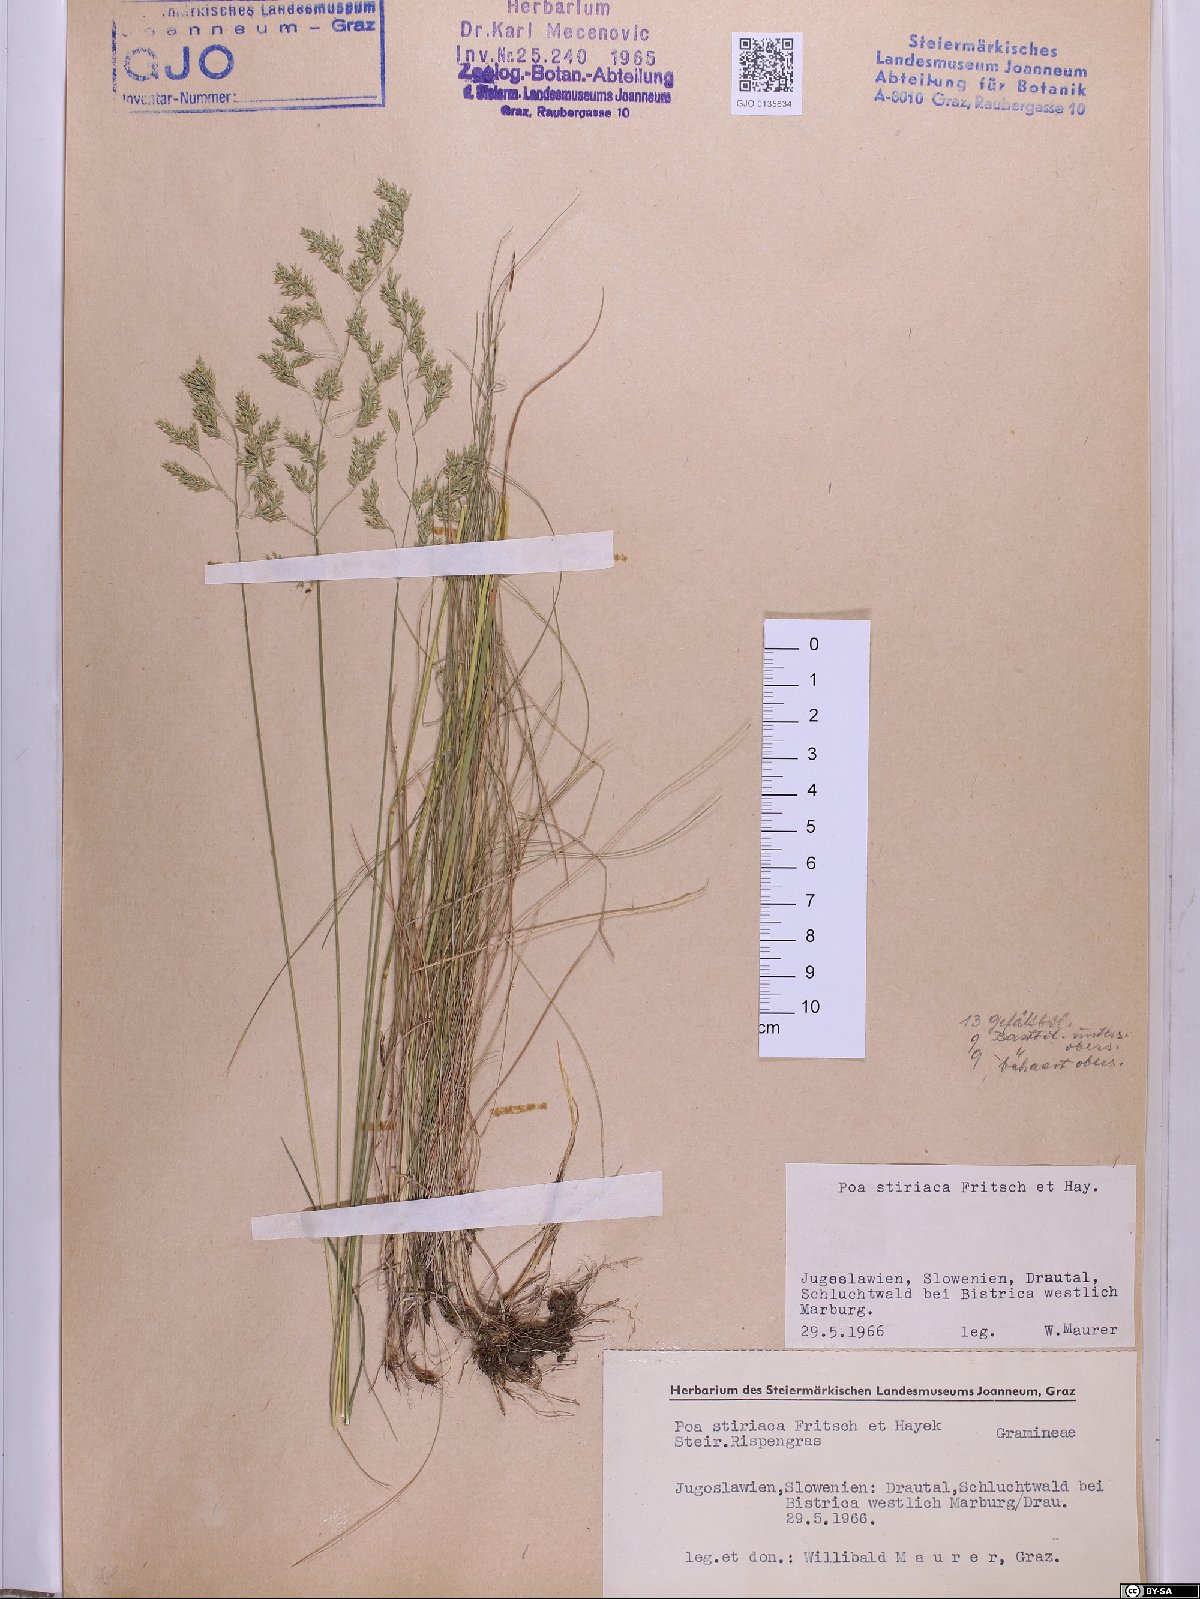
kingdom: Plantae
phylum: Tracheophyta
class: Liliopsida
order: Poales
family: Poaceae
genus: Poa
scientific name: Poa stiriaca
